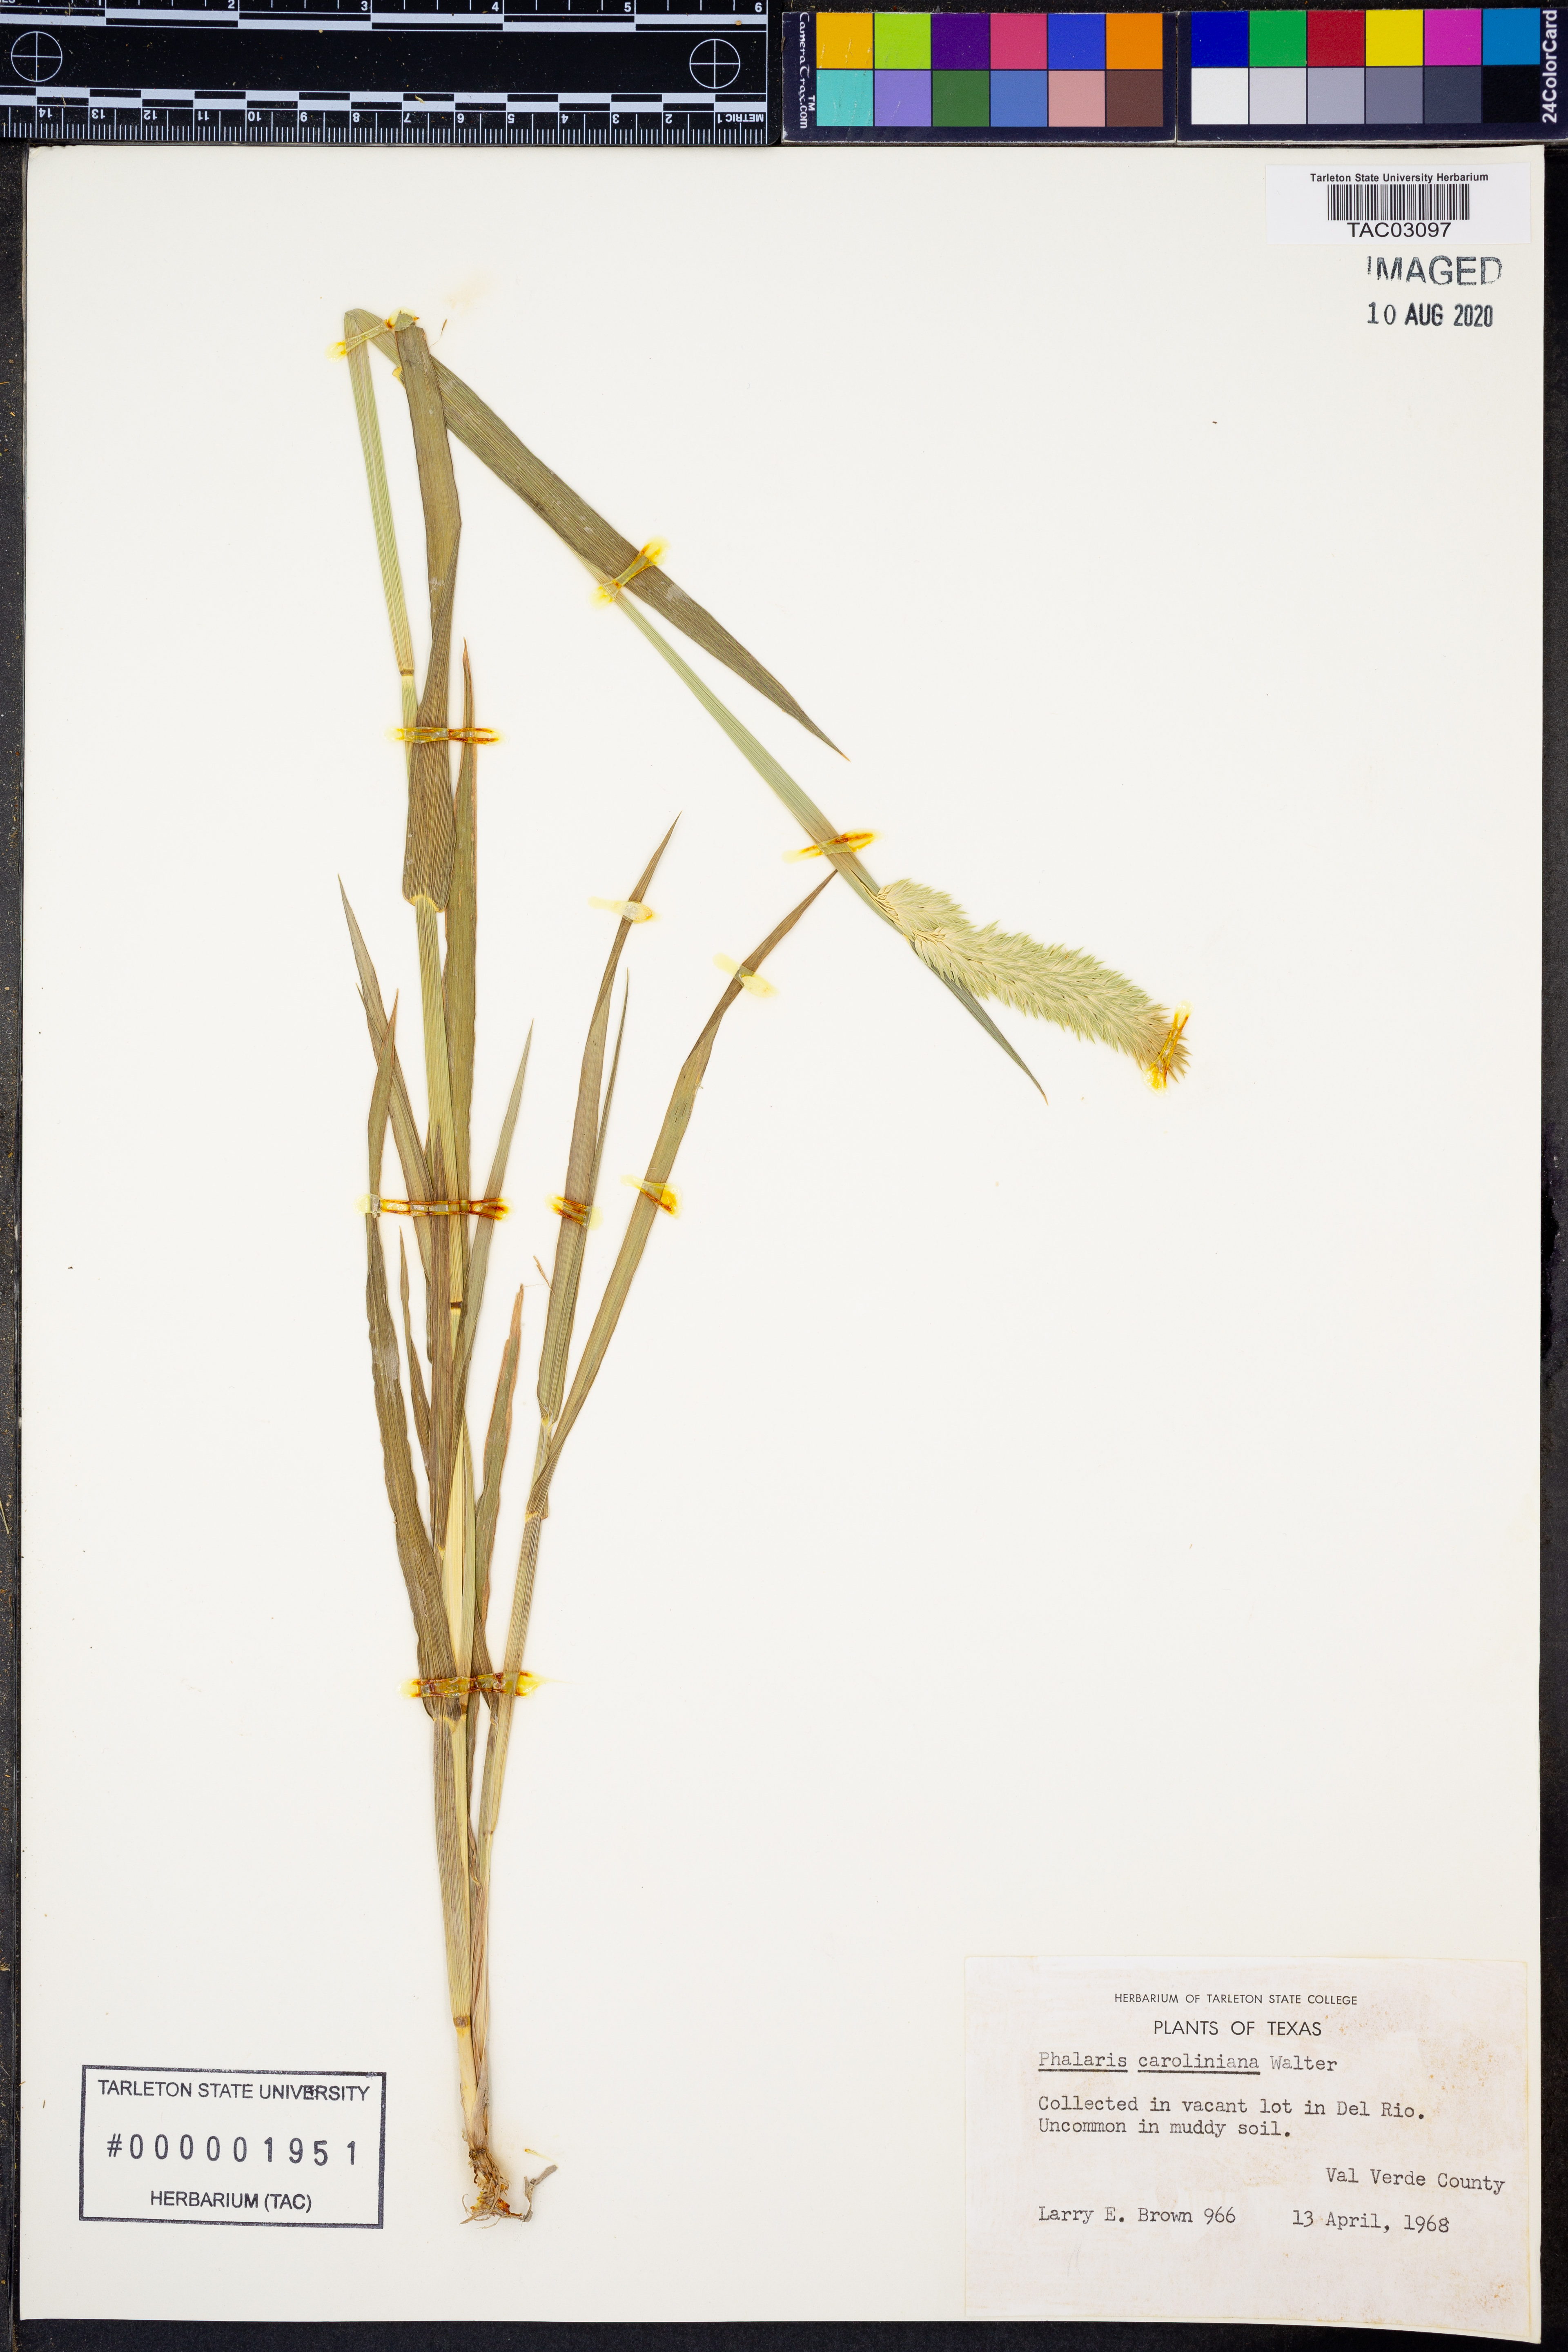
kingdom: Plantae
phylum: Tracheophyta
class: Liliopsida
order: Poales
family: Poaceae
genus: Phalaris
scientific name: Phalaris caroliniana
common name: May grass
